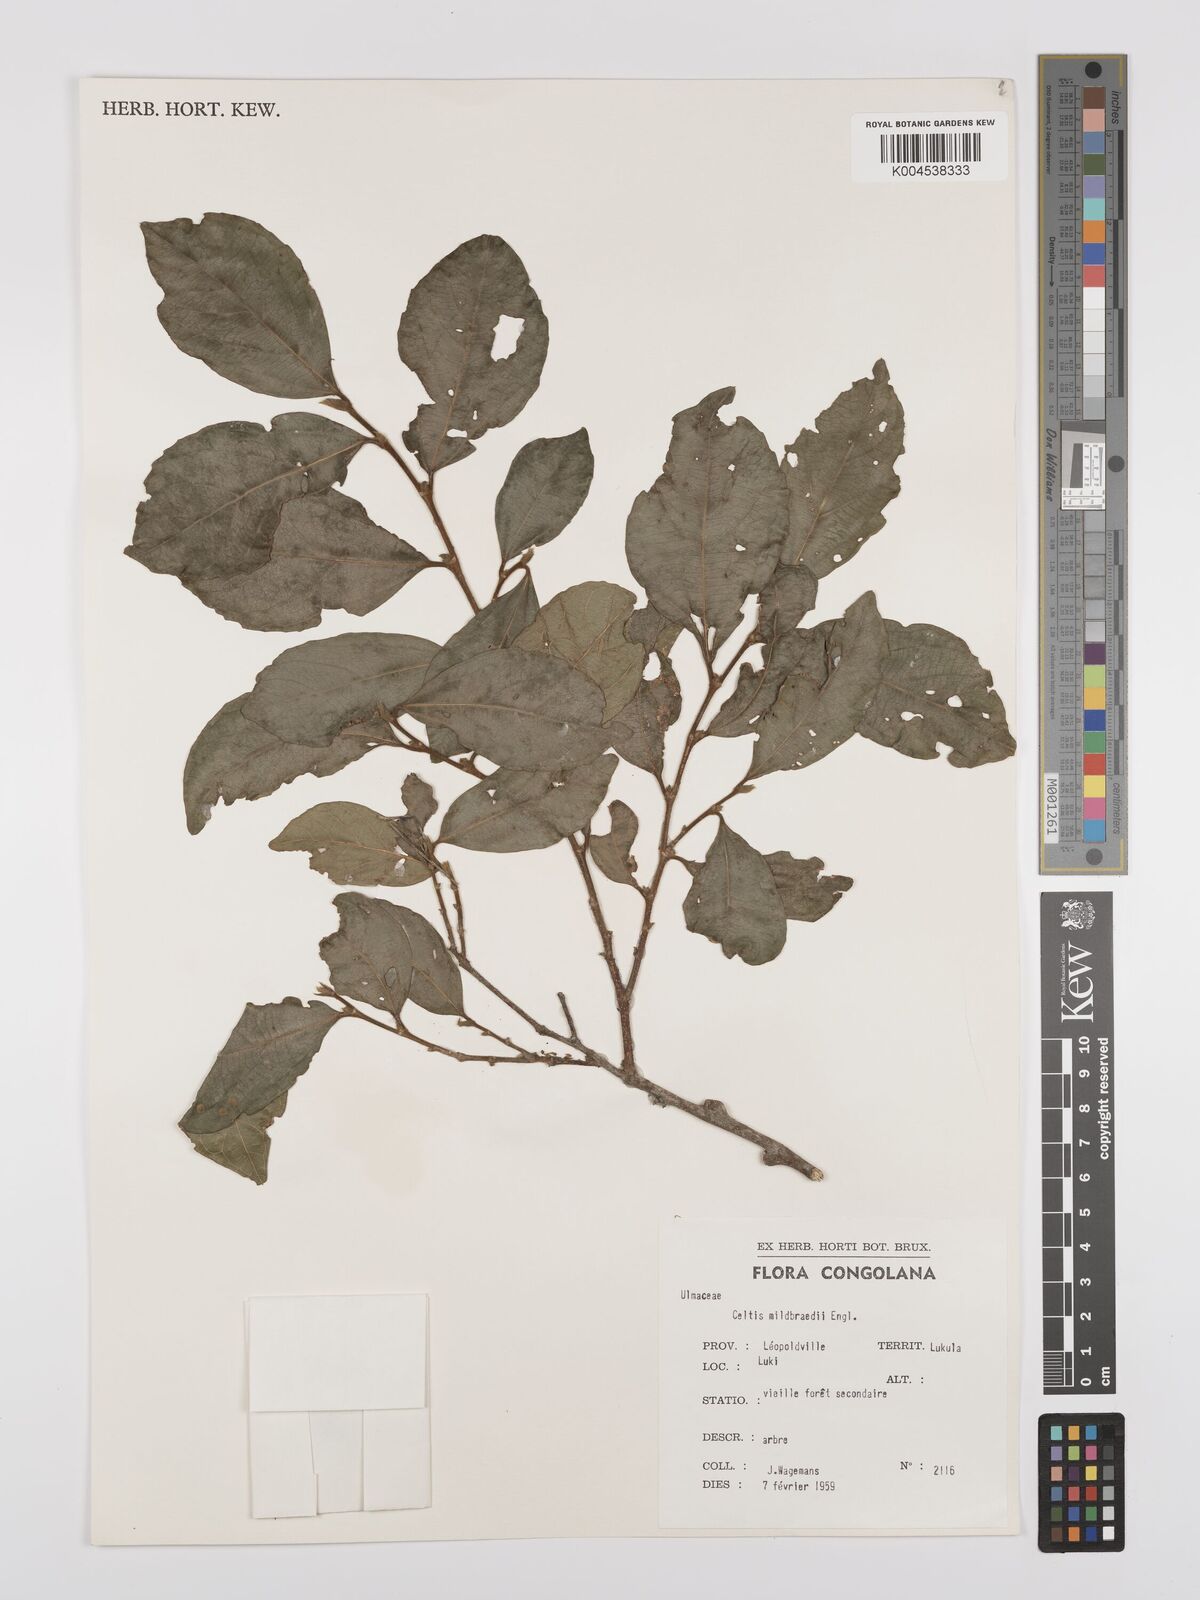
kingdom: Plantae
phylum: Tracheophyta
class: Magnoliopsida
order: Rosales
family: Cannabaceae
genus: Celtis
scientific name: Celtis mildbraedii
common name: Red-fruited stinkwood
